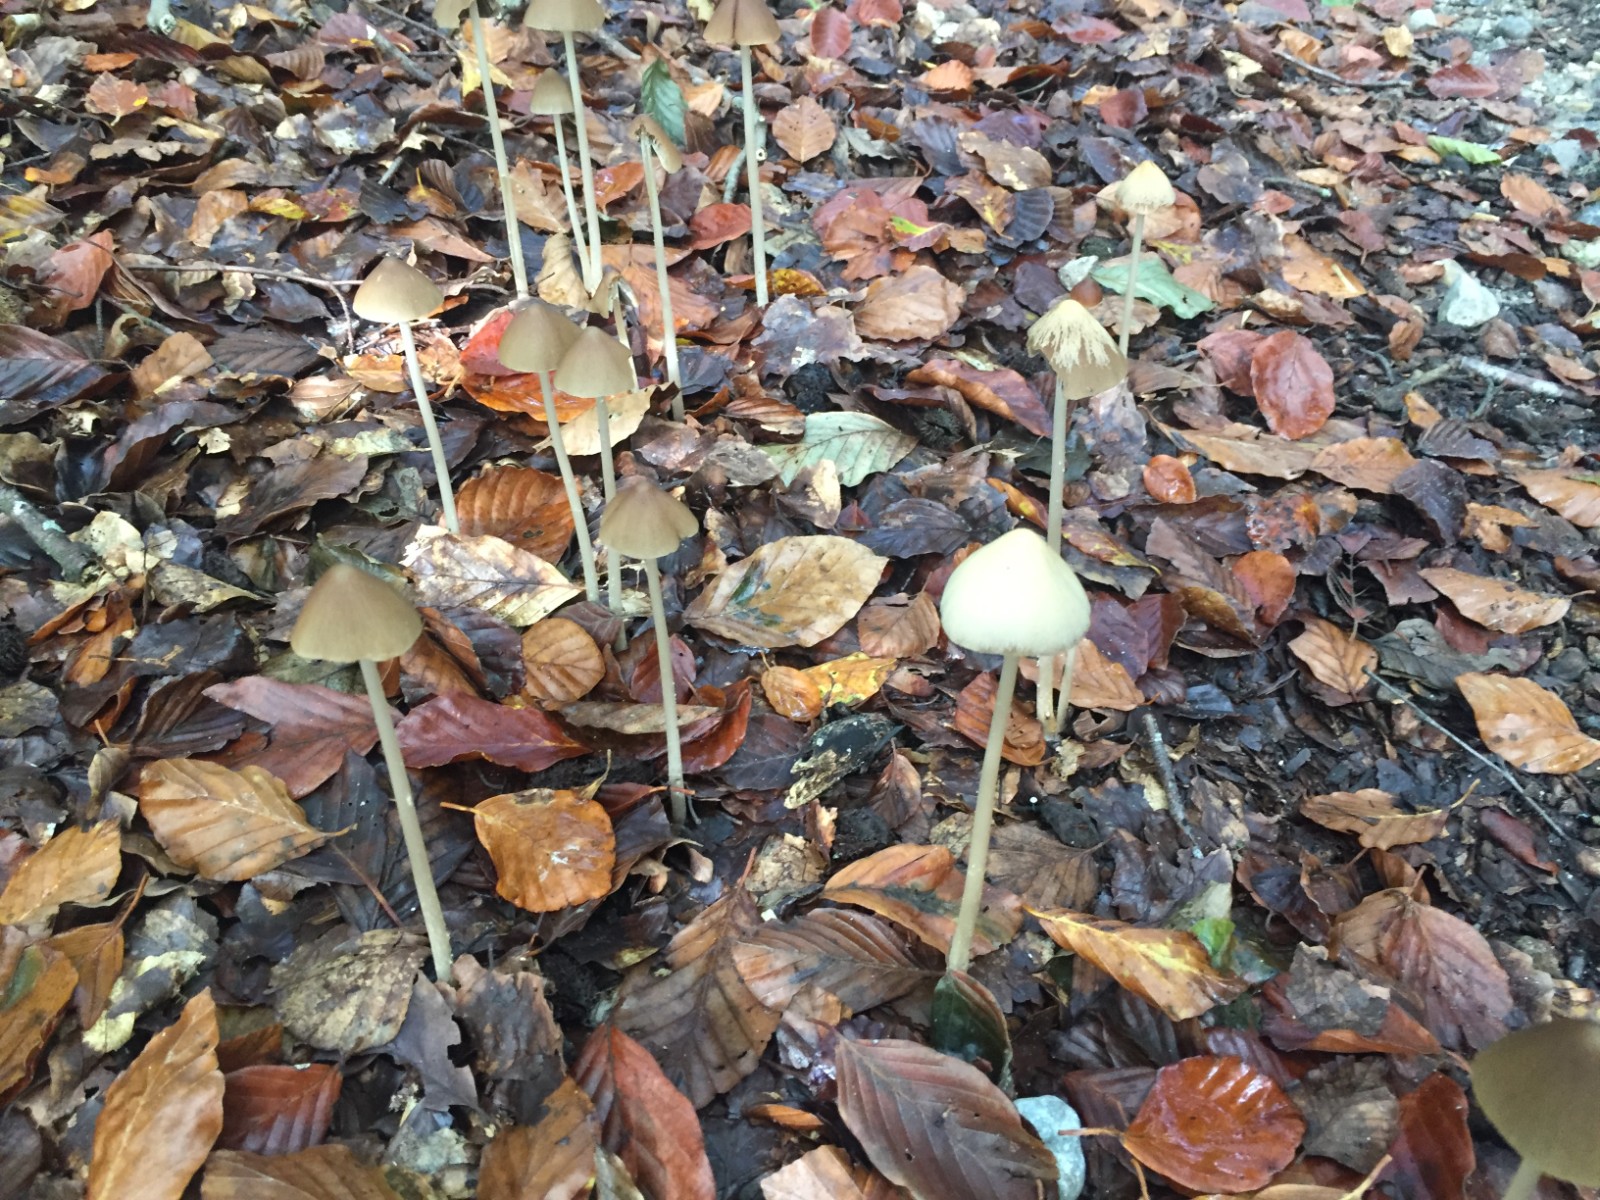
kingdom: Fungi
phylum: Basidiomycota
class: Agaricomycetes
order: Agaricales
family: Psathyrellaceae
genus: Parasola
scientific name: Parasola conopilea
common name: kegle-hjulhat
